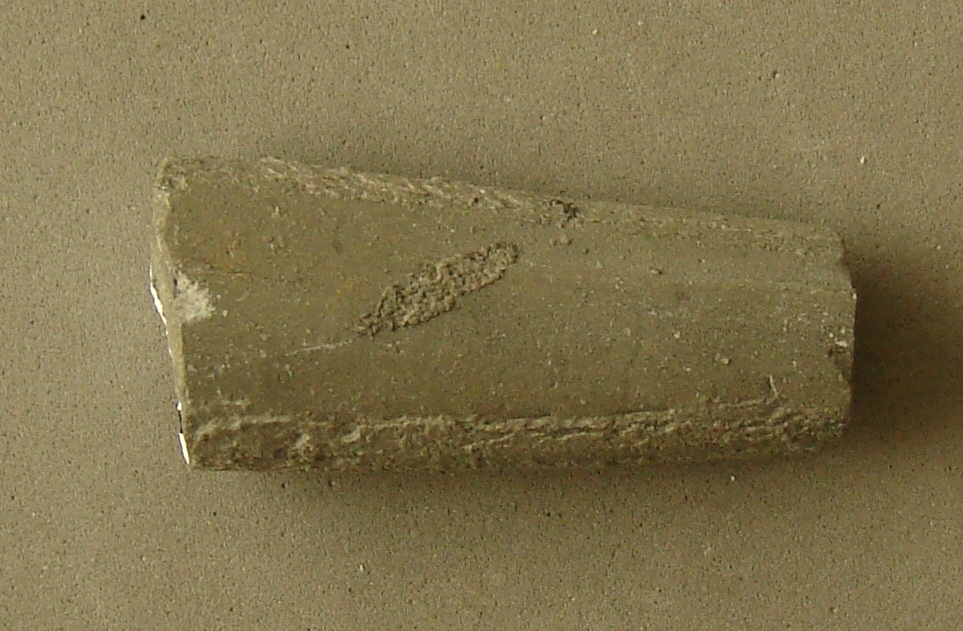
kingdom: Animalia
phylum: Mollusca
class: Cephalopoda
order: Belemnitida
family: Salpingoteuthididae
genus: Salpingoteuthis
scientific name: Salpingoteuthis
